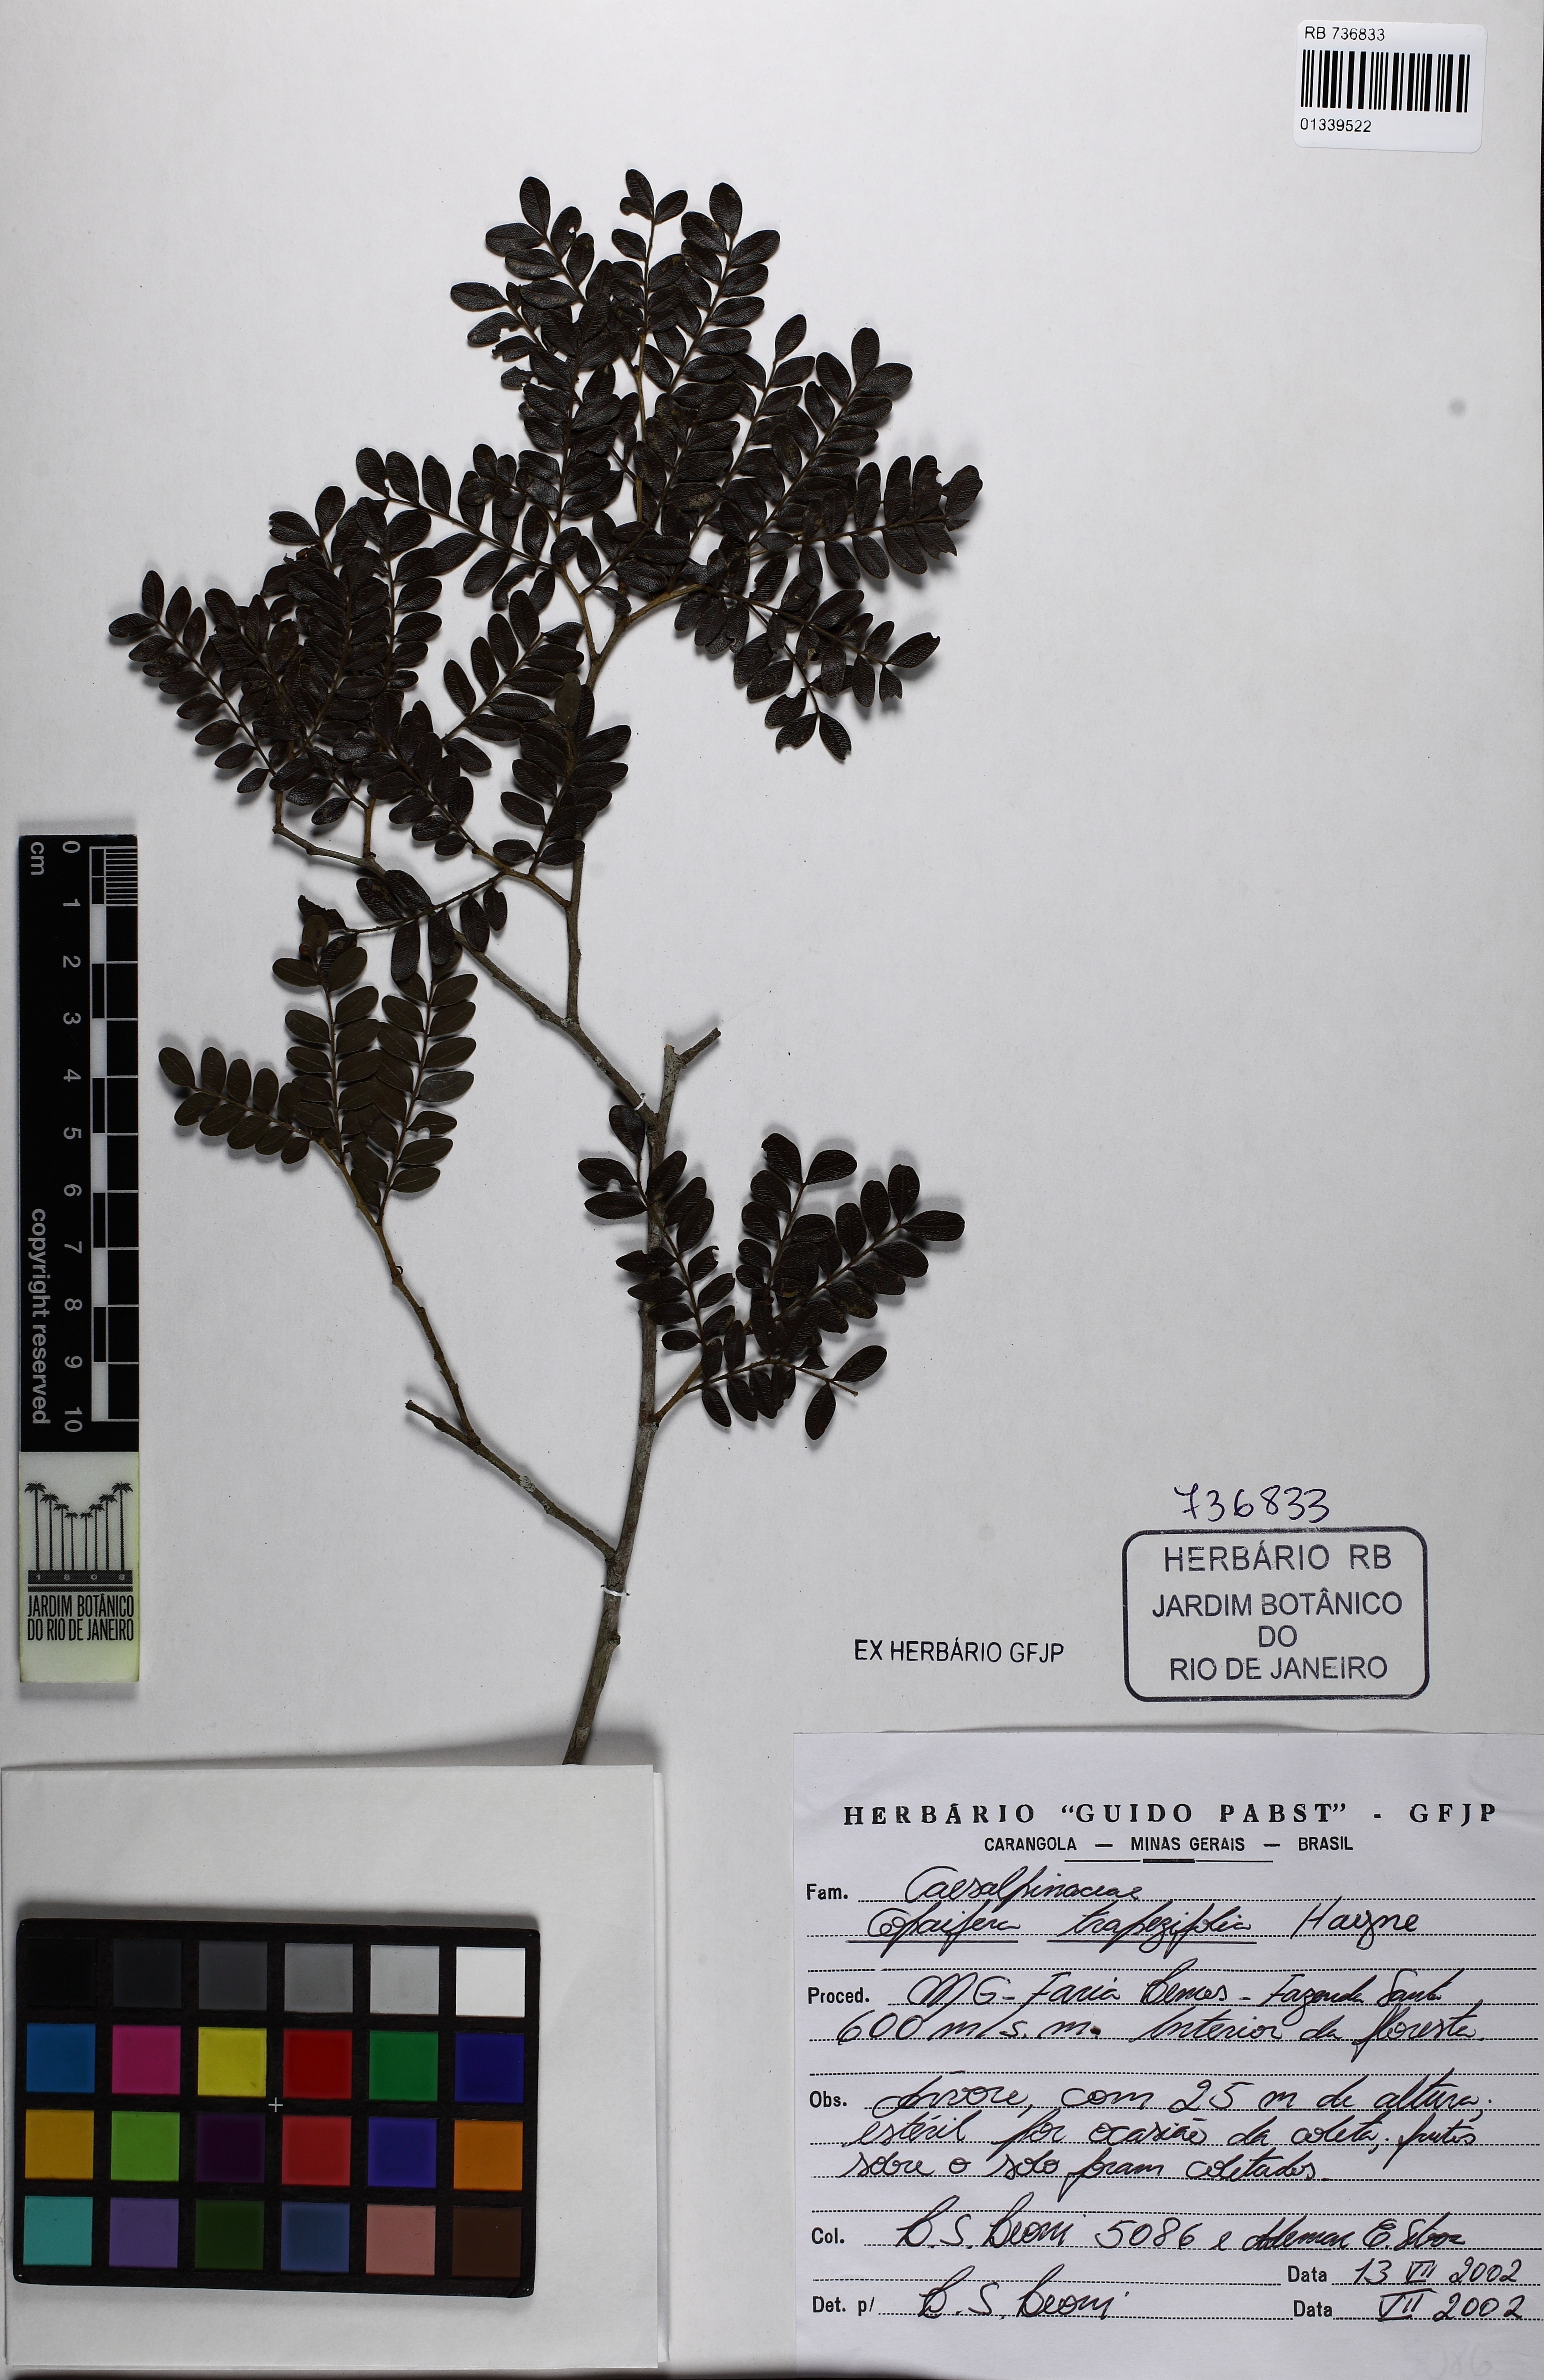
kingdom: Plantae
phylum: Tracheophyta
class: Magnoliopsida
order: Fabales
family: Fabaceae
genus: Copaifera
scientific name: Copaifera trapezifolia
